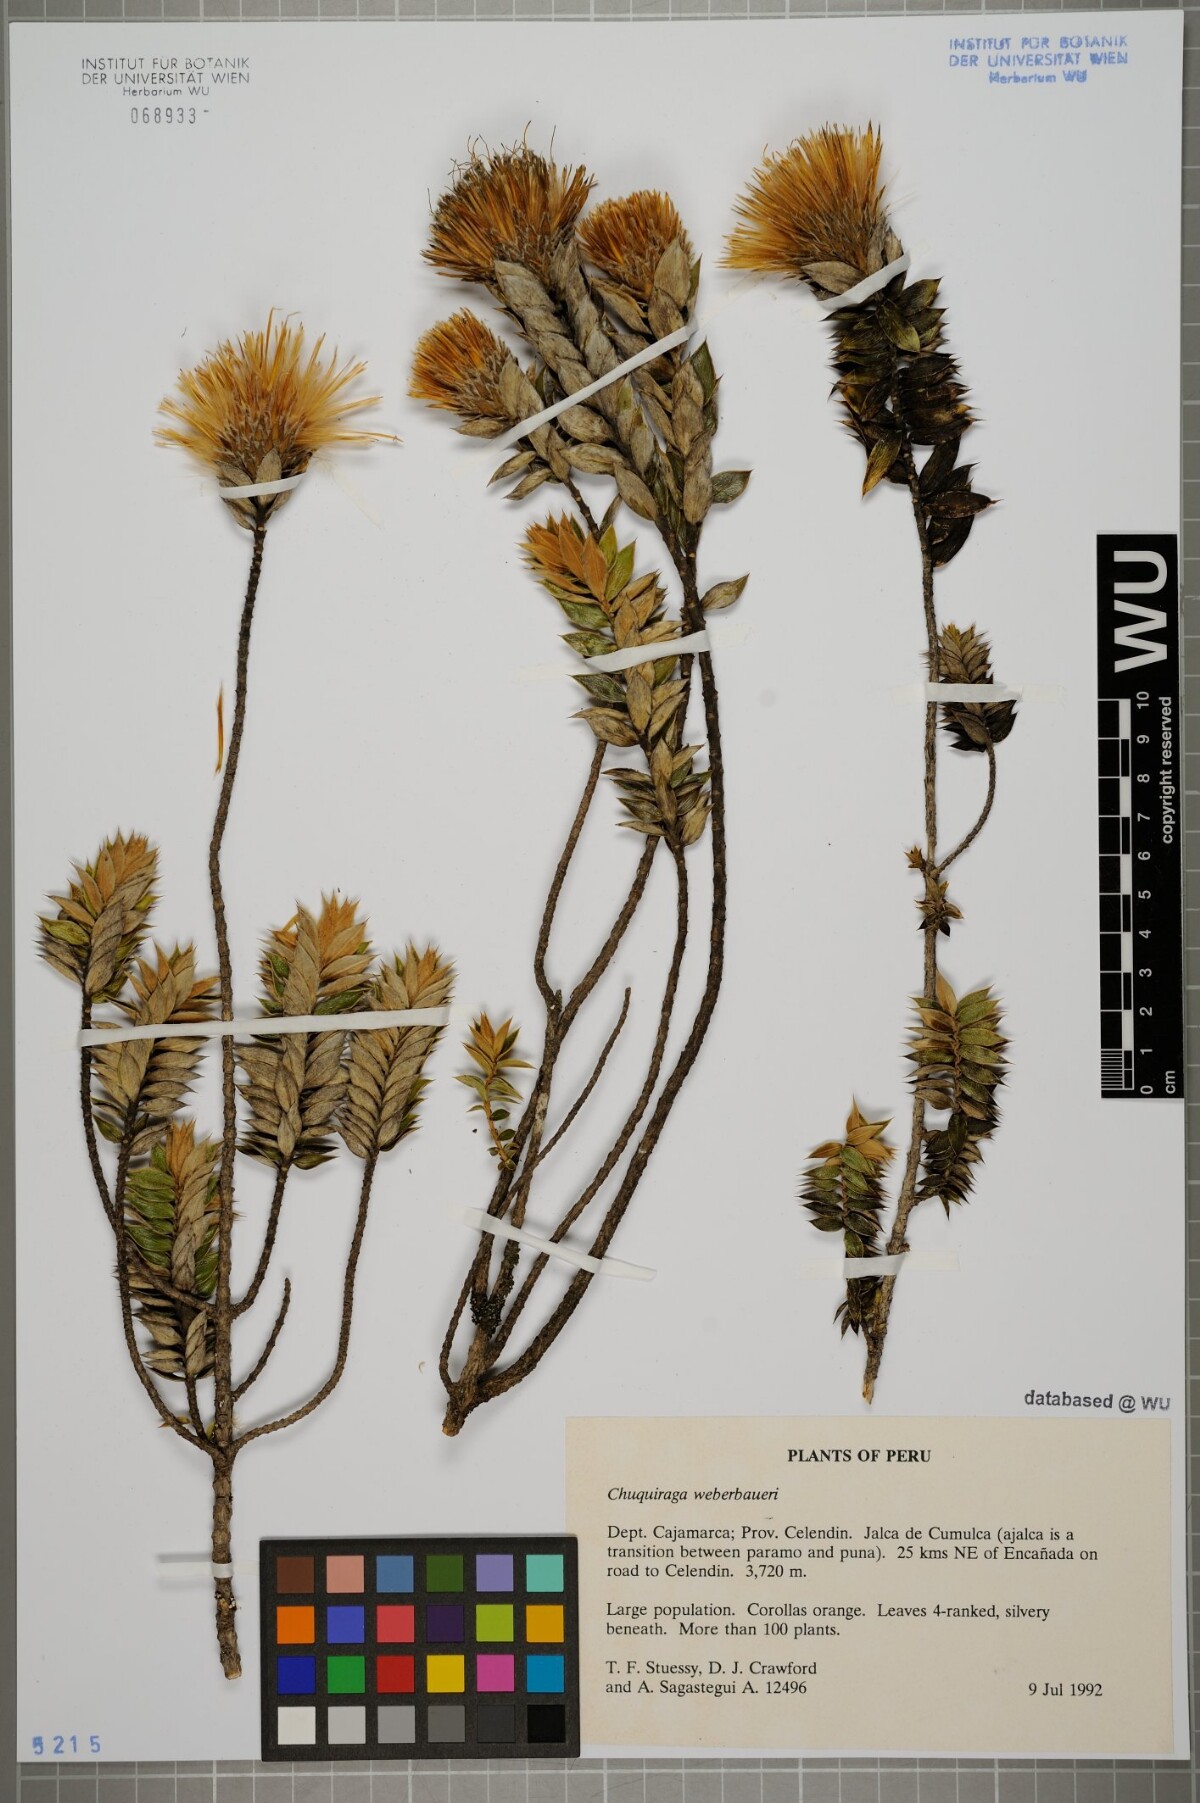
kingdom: Plantae
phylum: Tracheophyta
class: Magnoliopsida
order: Asterales
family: Asteraceae
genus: Chuquiraga
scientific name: Chuquiraga weberbaueri
